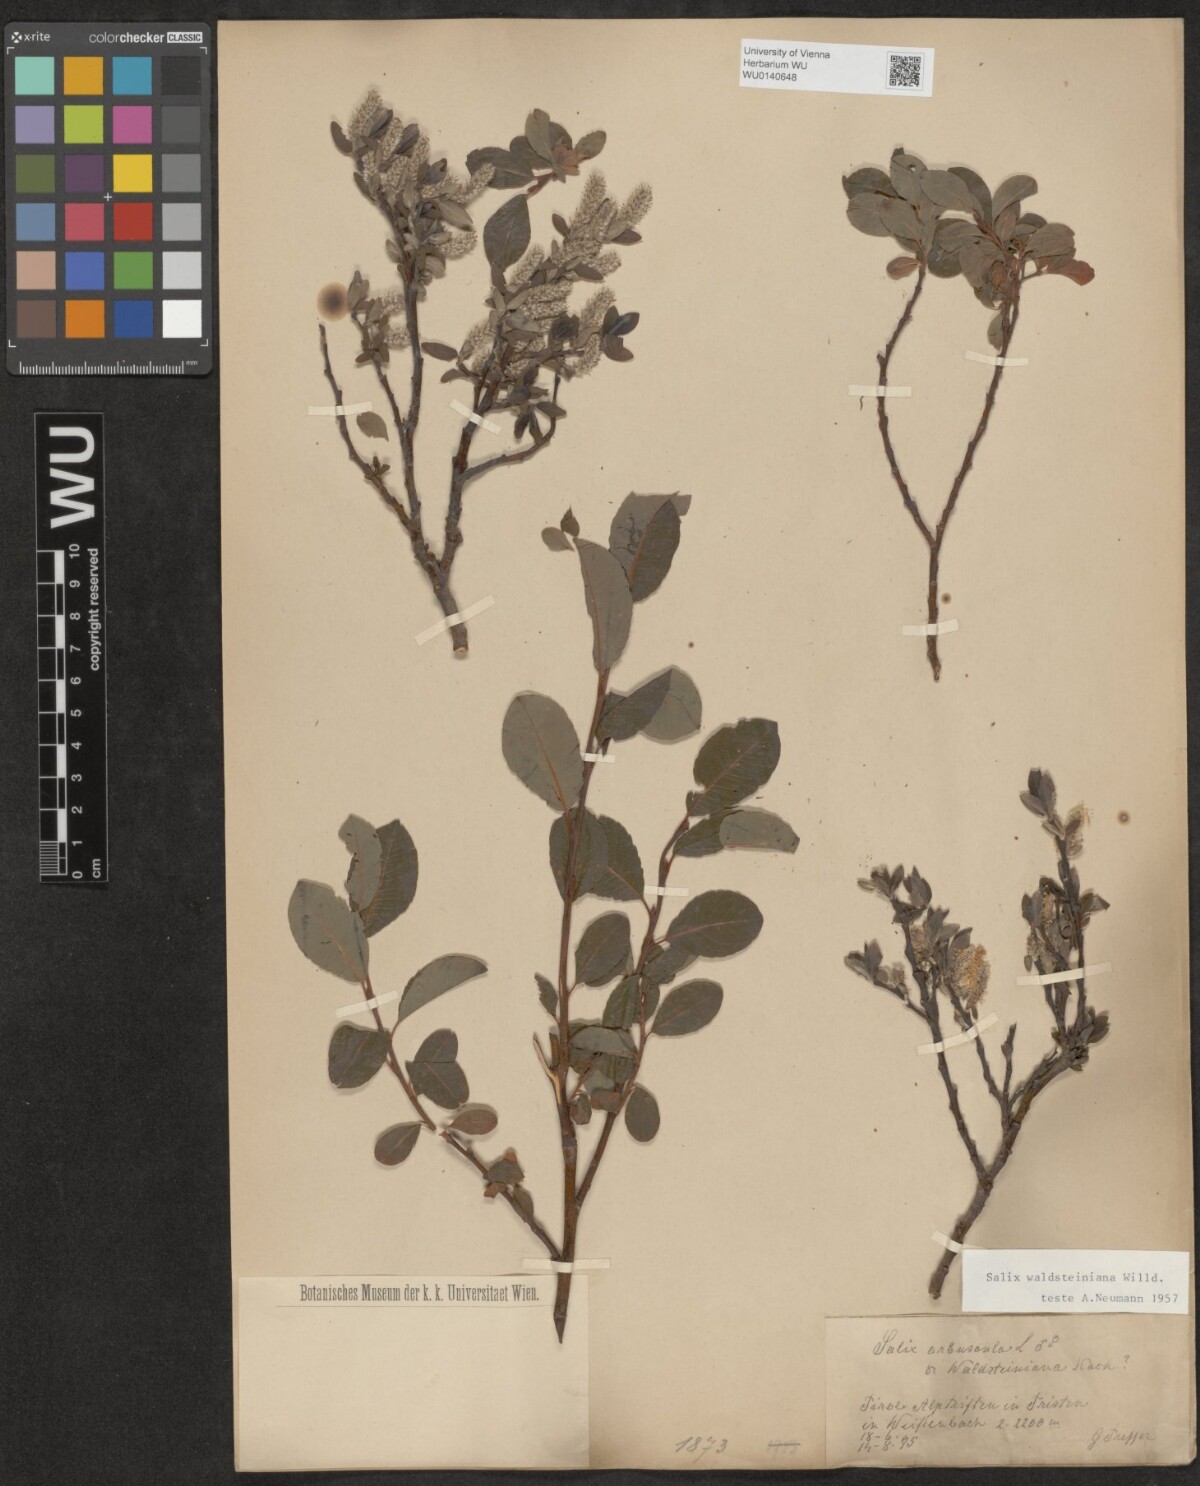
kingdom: Plantae
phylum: Tracheophyta
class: Magnoliopsida
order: Malpighiales
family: Salicaceae
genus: Salix
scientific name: Salix waldsteiniana
